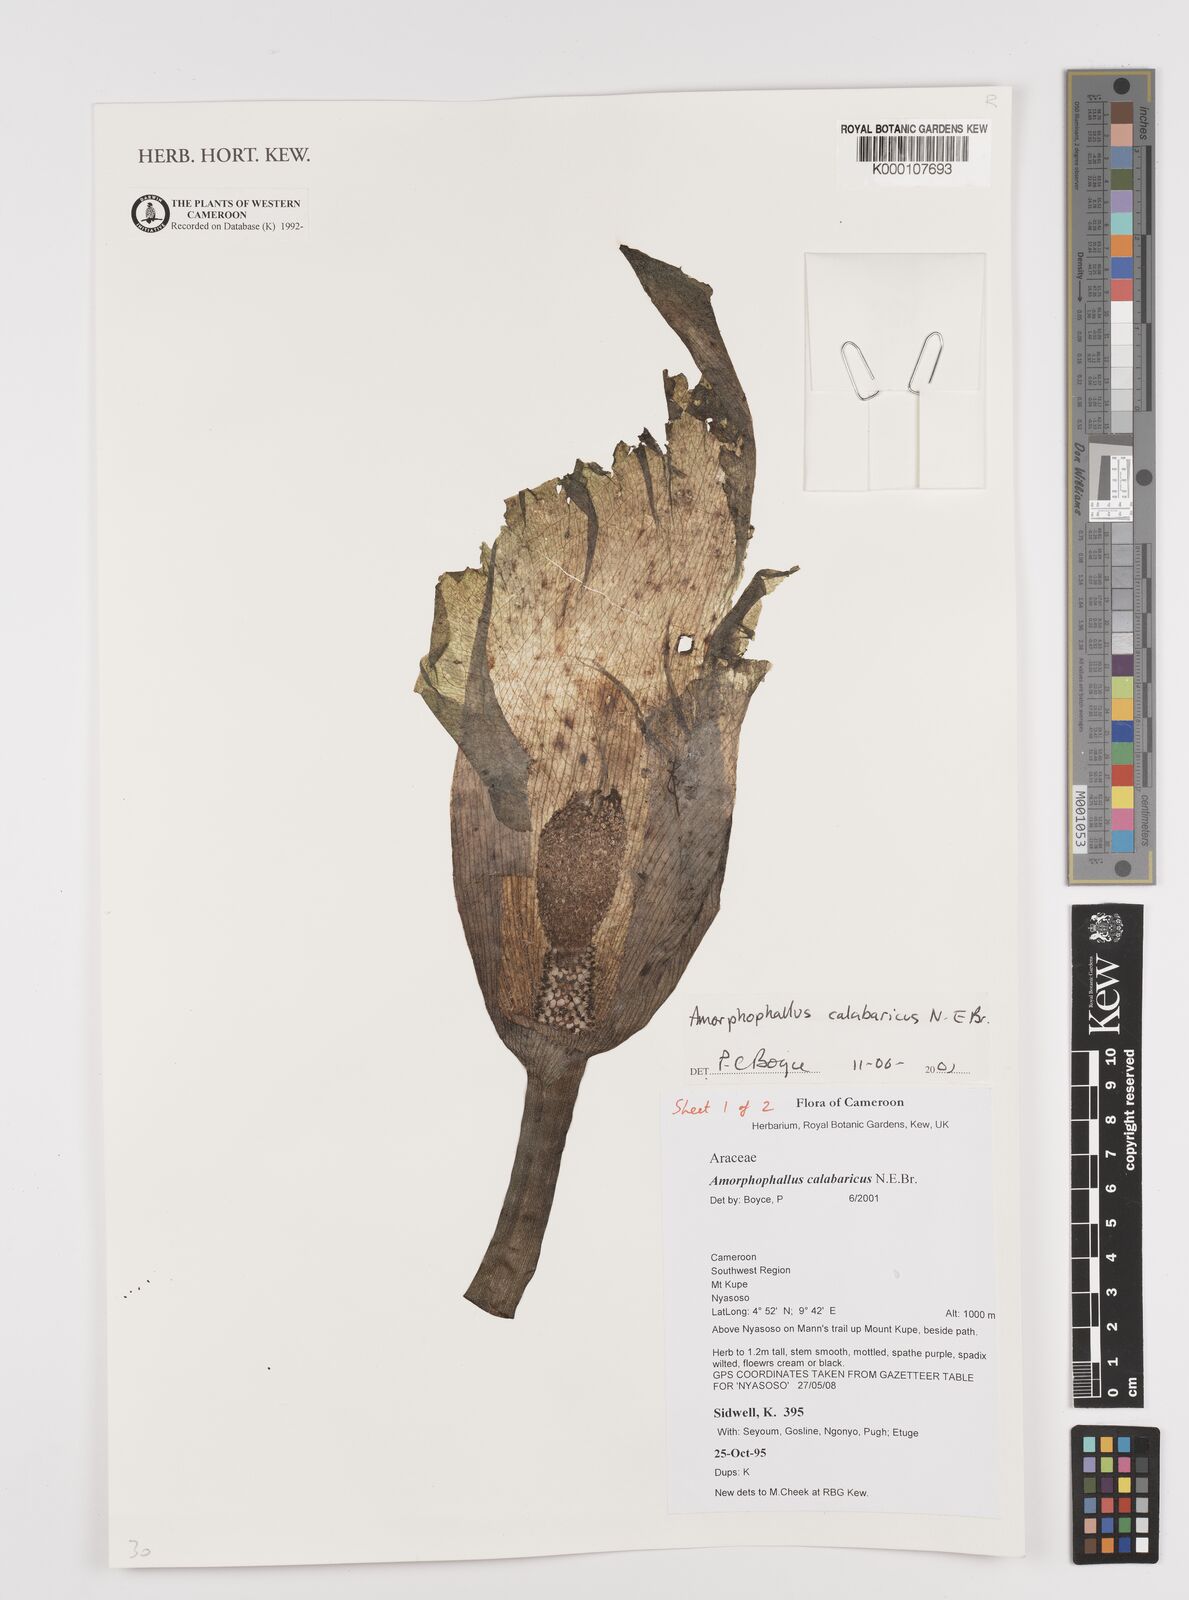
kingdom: Plantae
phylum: Tracheophyta
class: Liliopsida
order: Alismatales
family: Araceae
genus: Amorphophallus
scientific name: Amorphophallus calabaricus
